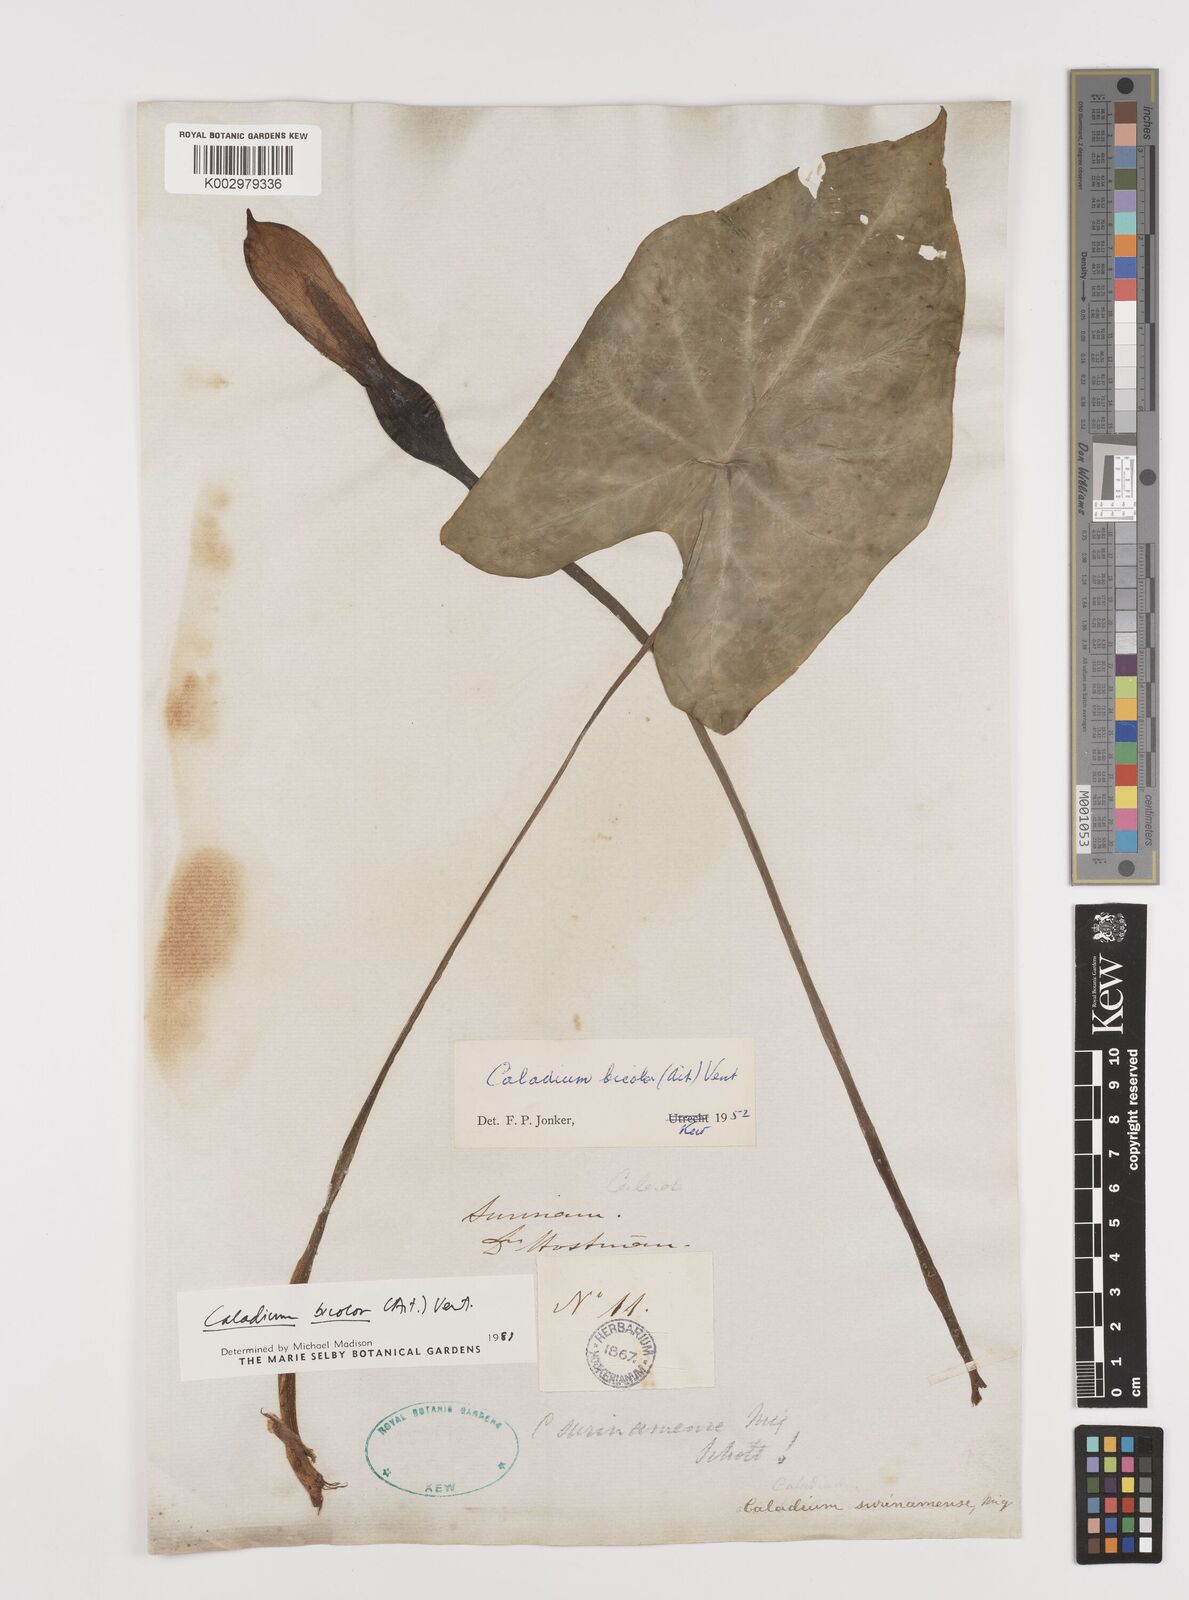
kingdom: Plantae
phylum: Tracheophyta
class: Liliopsida
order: Alismatales
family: Araceae
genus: Xanthosoma
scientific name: Xanthosoma poecile
